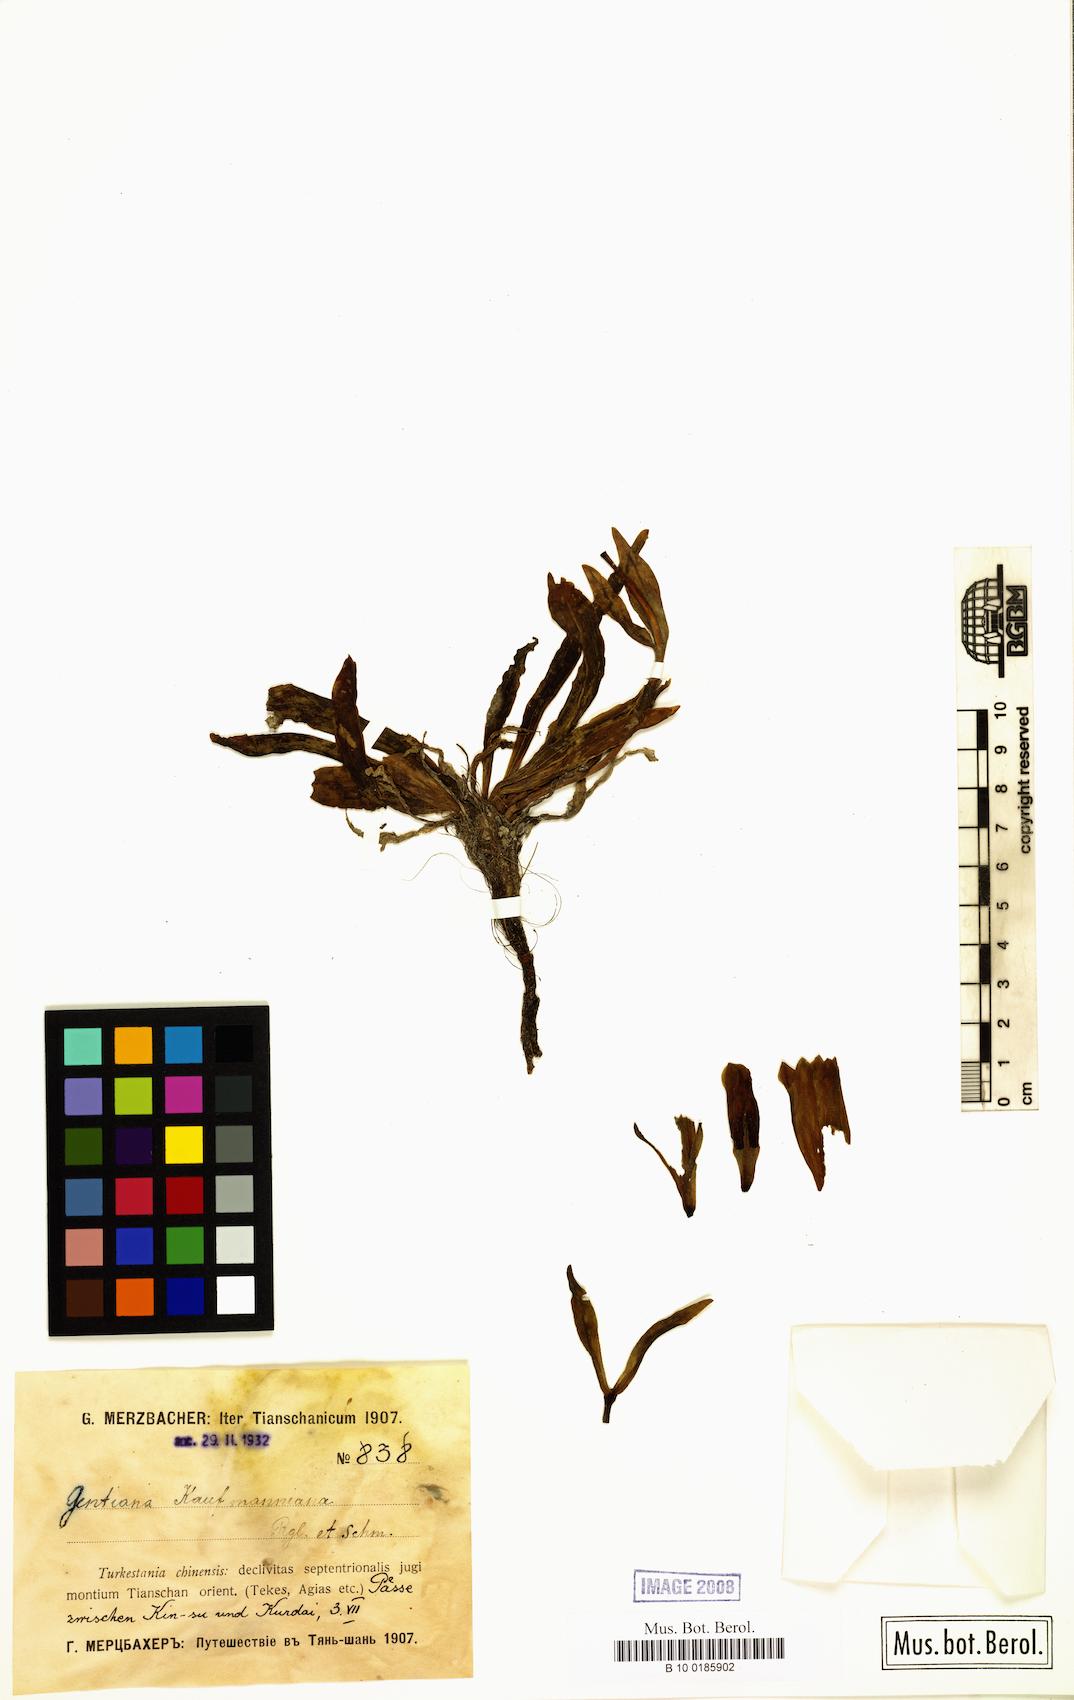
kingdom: Plantae
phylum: Tracheophyta
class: Magnoliopsida
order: Gentianales
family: Gentianaceae
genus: Gentiana
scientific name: Gentiana kauffmanniana
